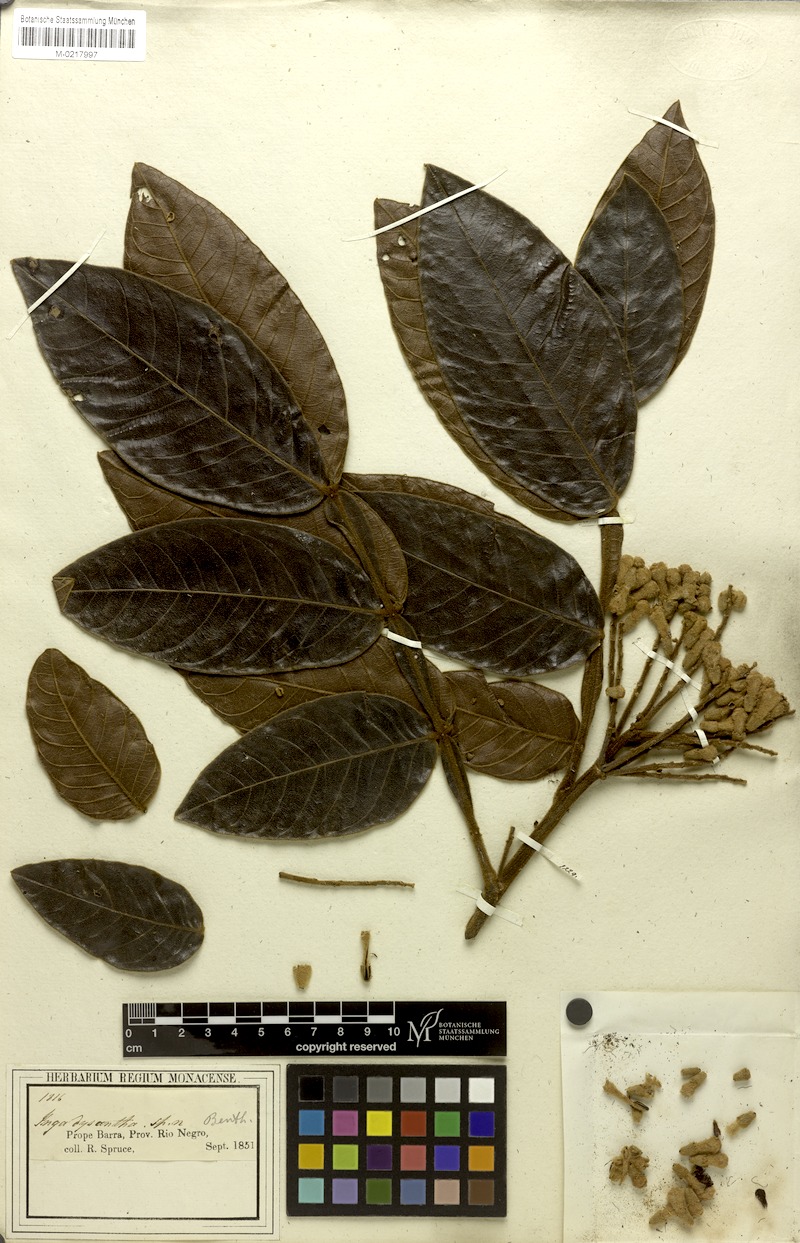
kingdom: Plantae
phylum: Tracheophyta
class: Magnoliopsida
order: Fabales
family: Fabaceae
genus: Inga
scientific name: Inga cayennensis
